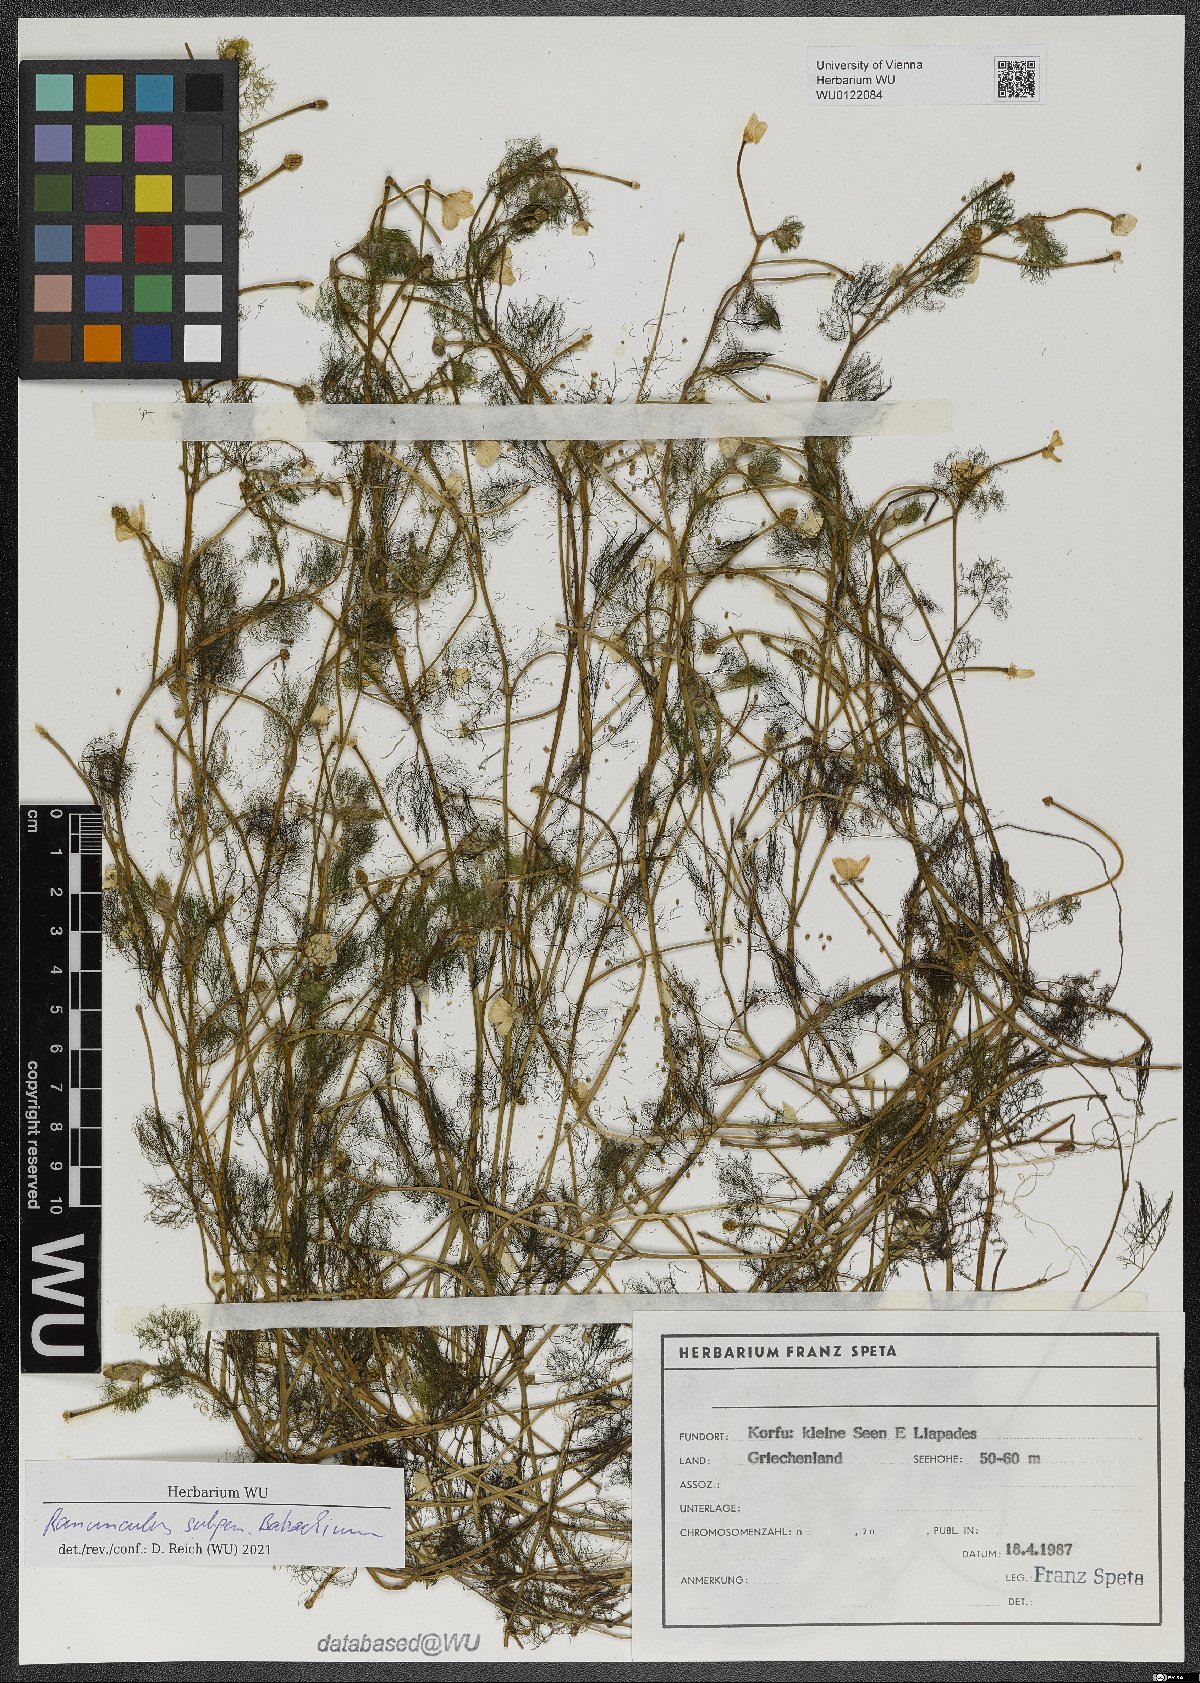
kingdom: Plantae
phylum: Tracheophyta
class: Magnoliopsida
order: Ranunculales
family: Ranunculaceae
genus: Ranunculus
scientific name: Ranunculus
